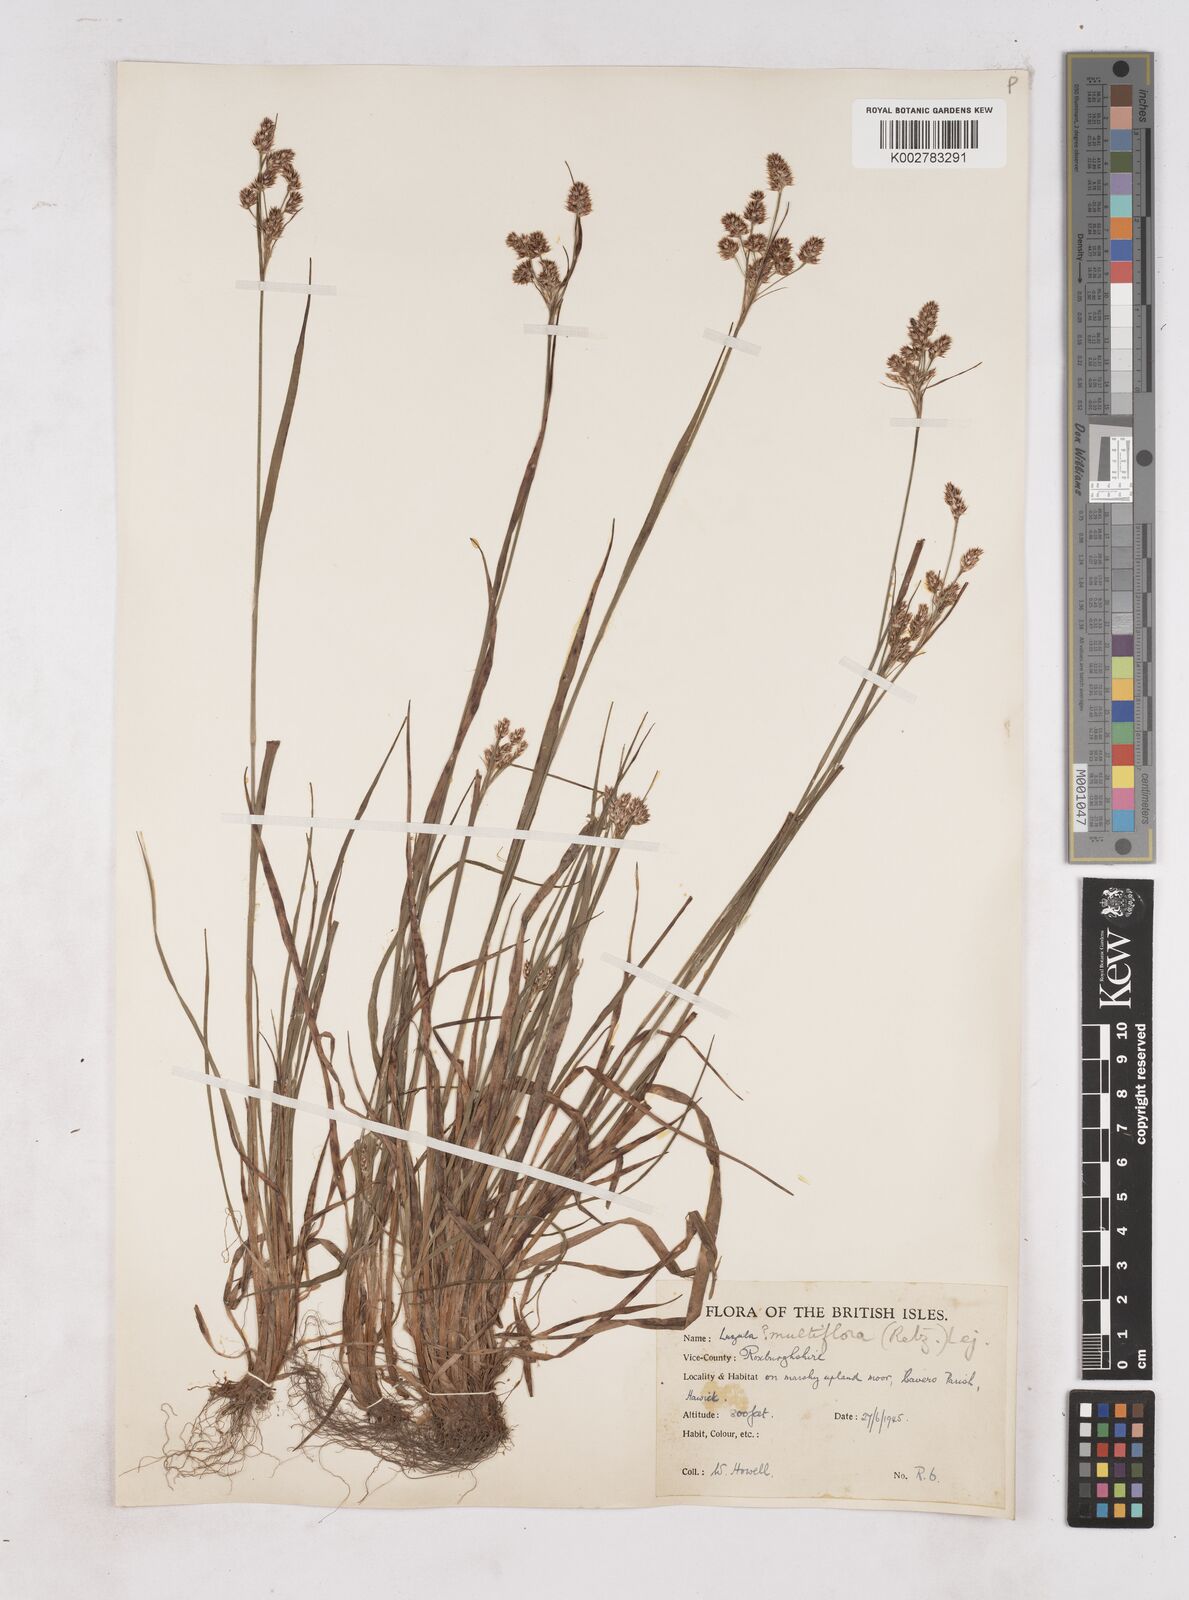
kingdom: Plantae
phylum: Tracheophyta
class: Liliopsida
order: Poales
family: Juncaceae
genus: Luzula
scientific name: Luzula multiflora
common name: Heath wood-rush
